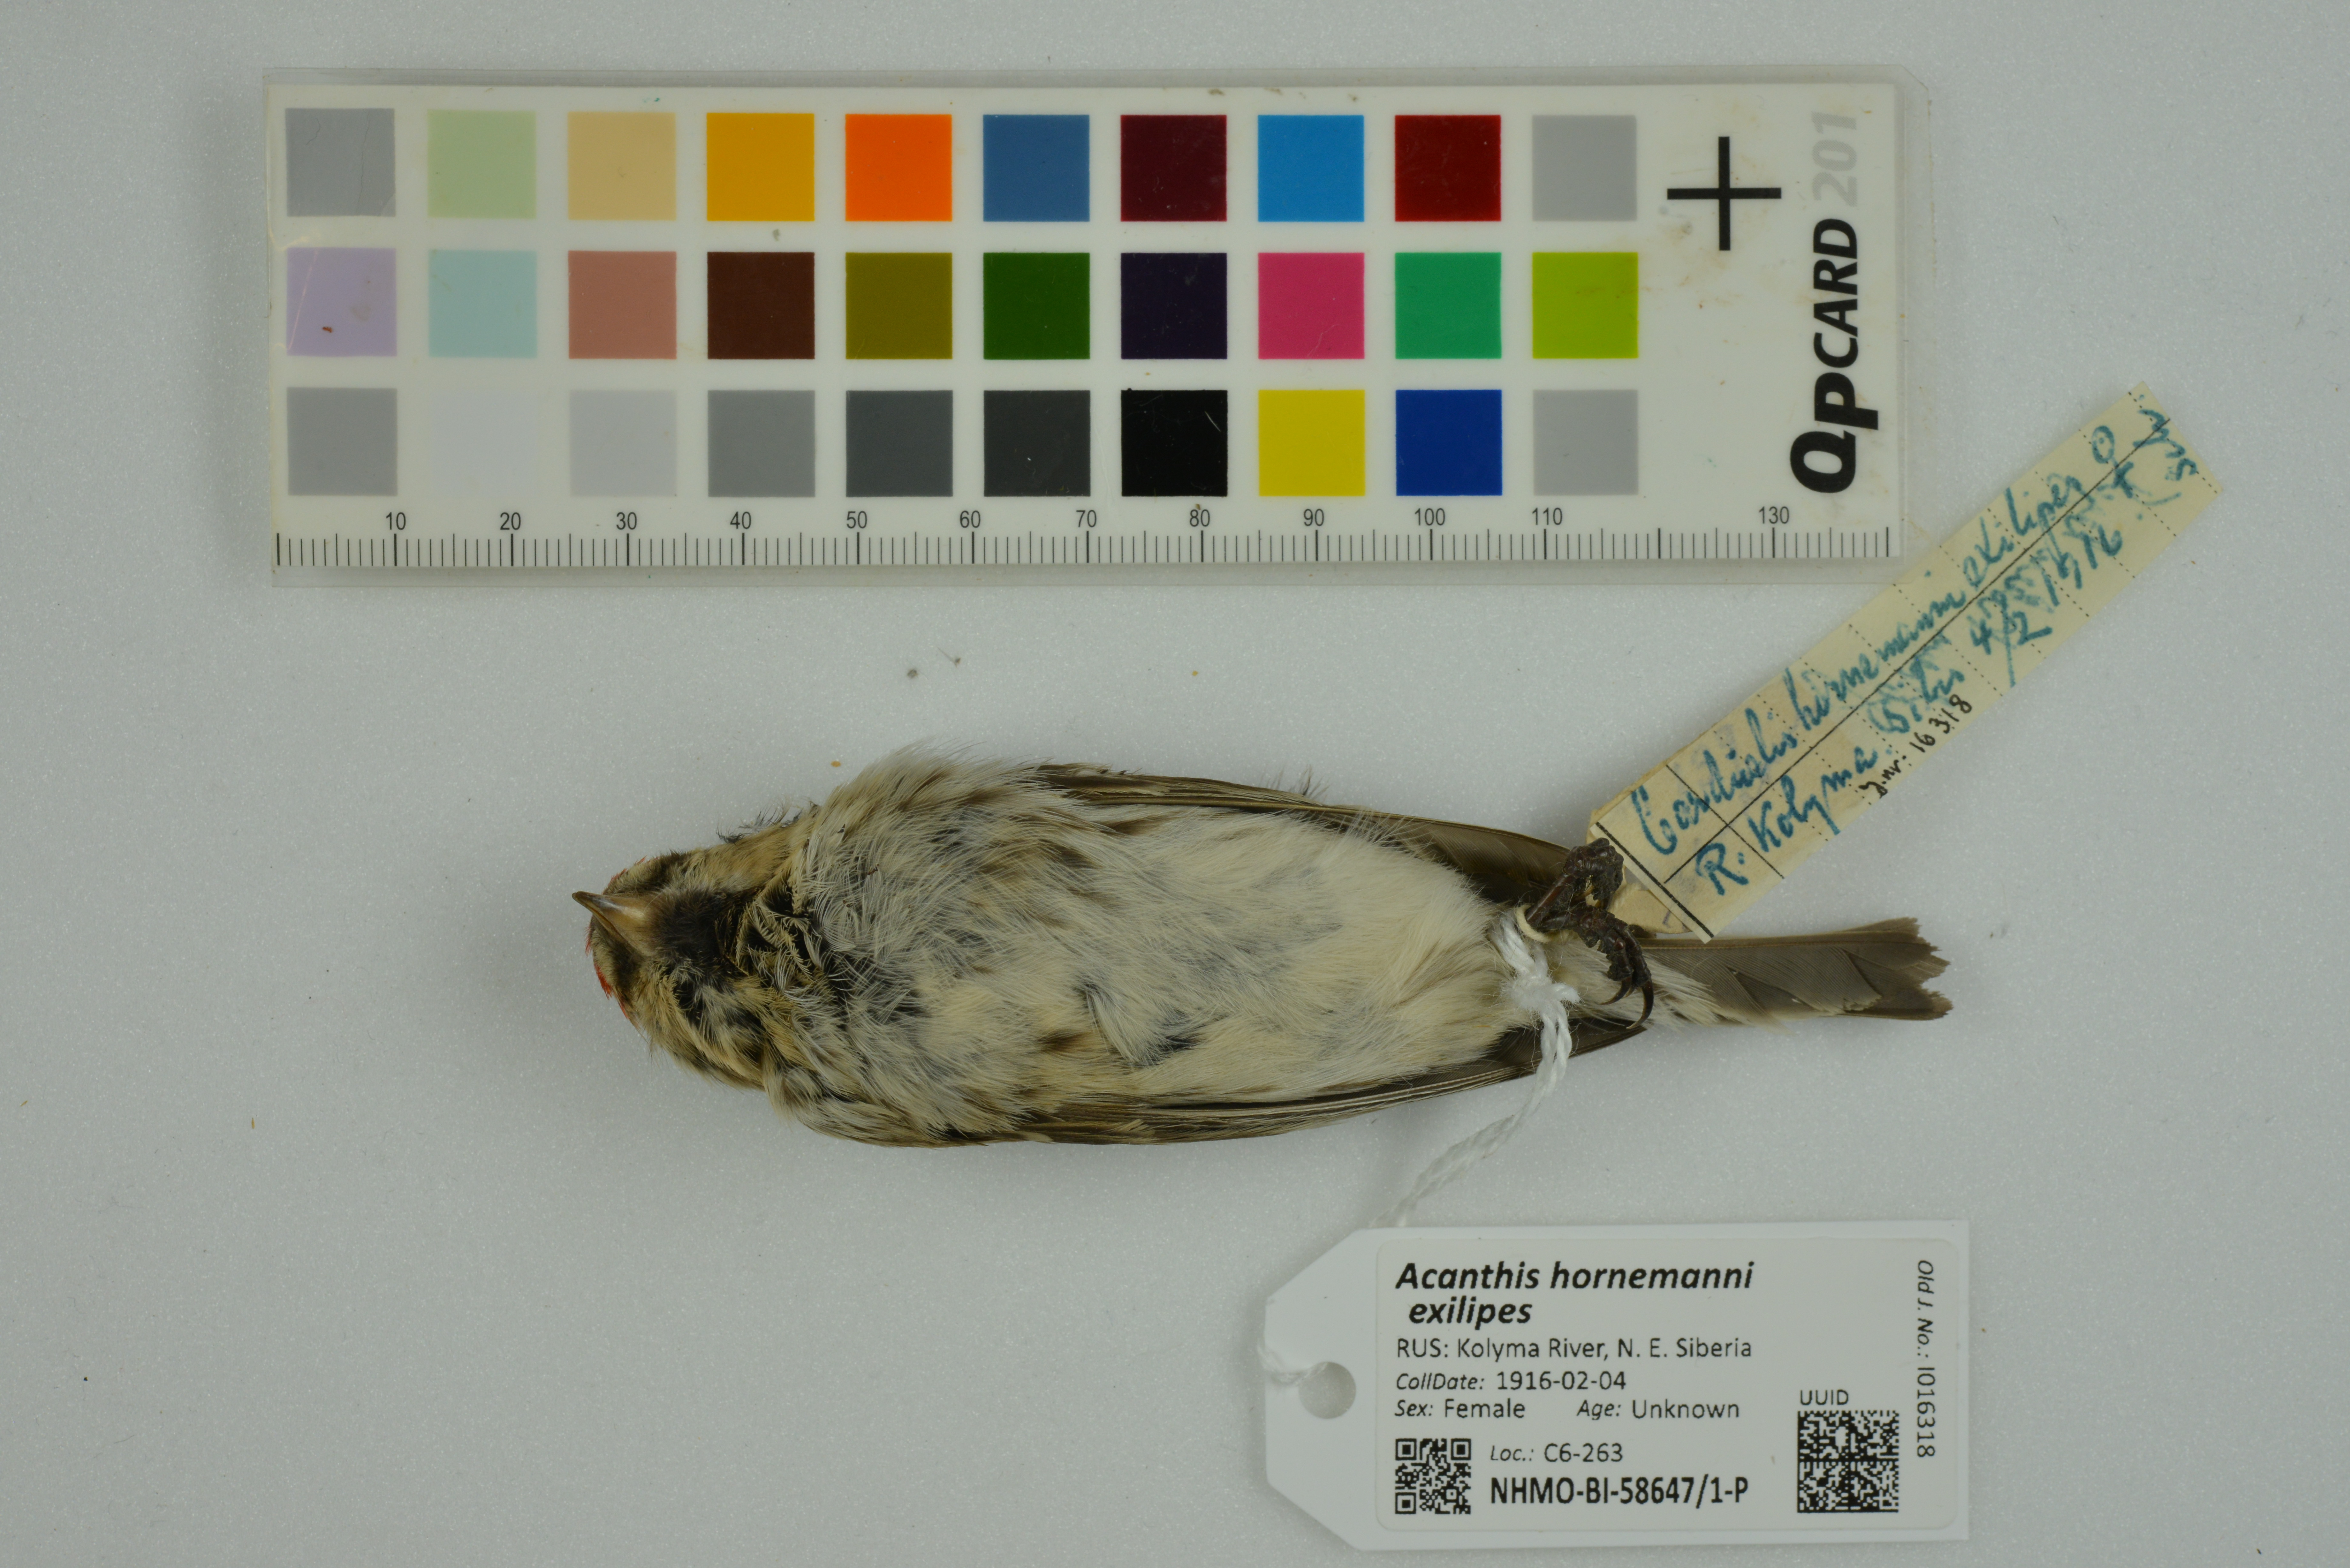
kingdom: Animalia
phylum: Chordata
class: Aves
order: Passeriformes
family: Fringillidae
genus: Acanthis
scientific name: Acanthis hornemanni
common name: Arctic redpoll
